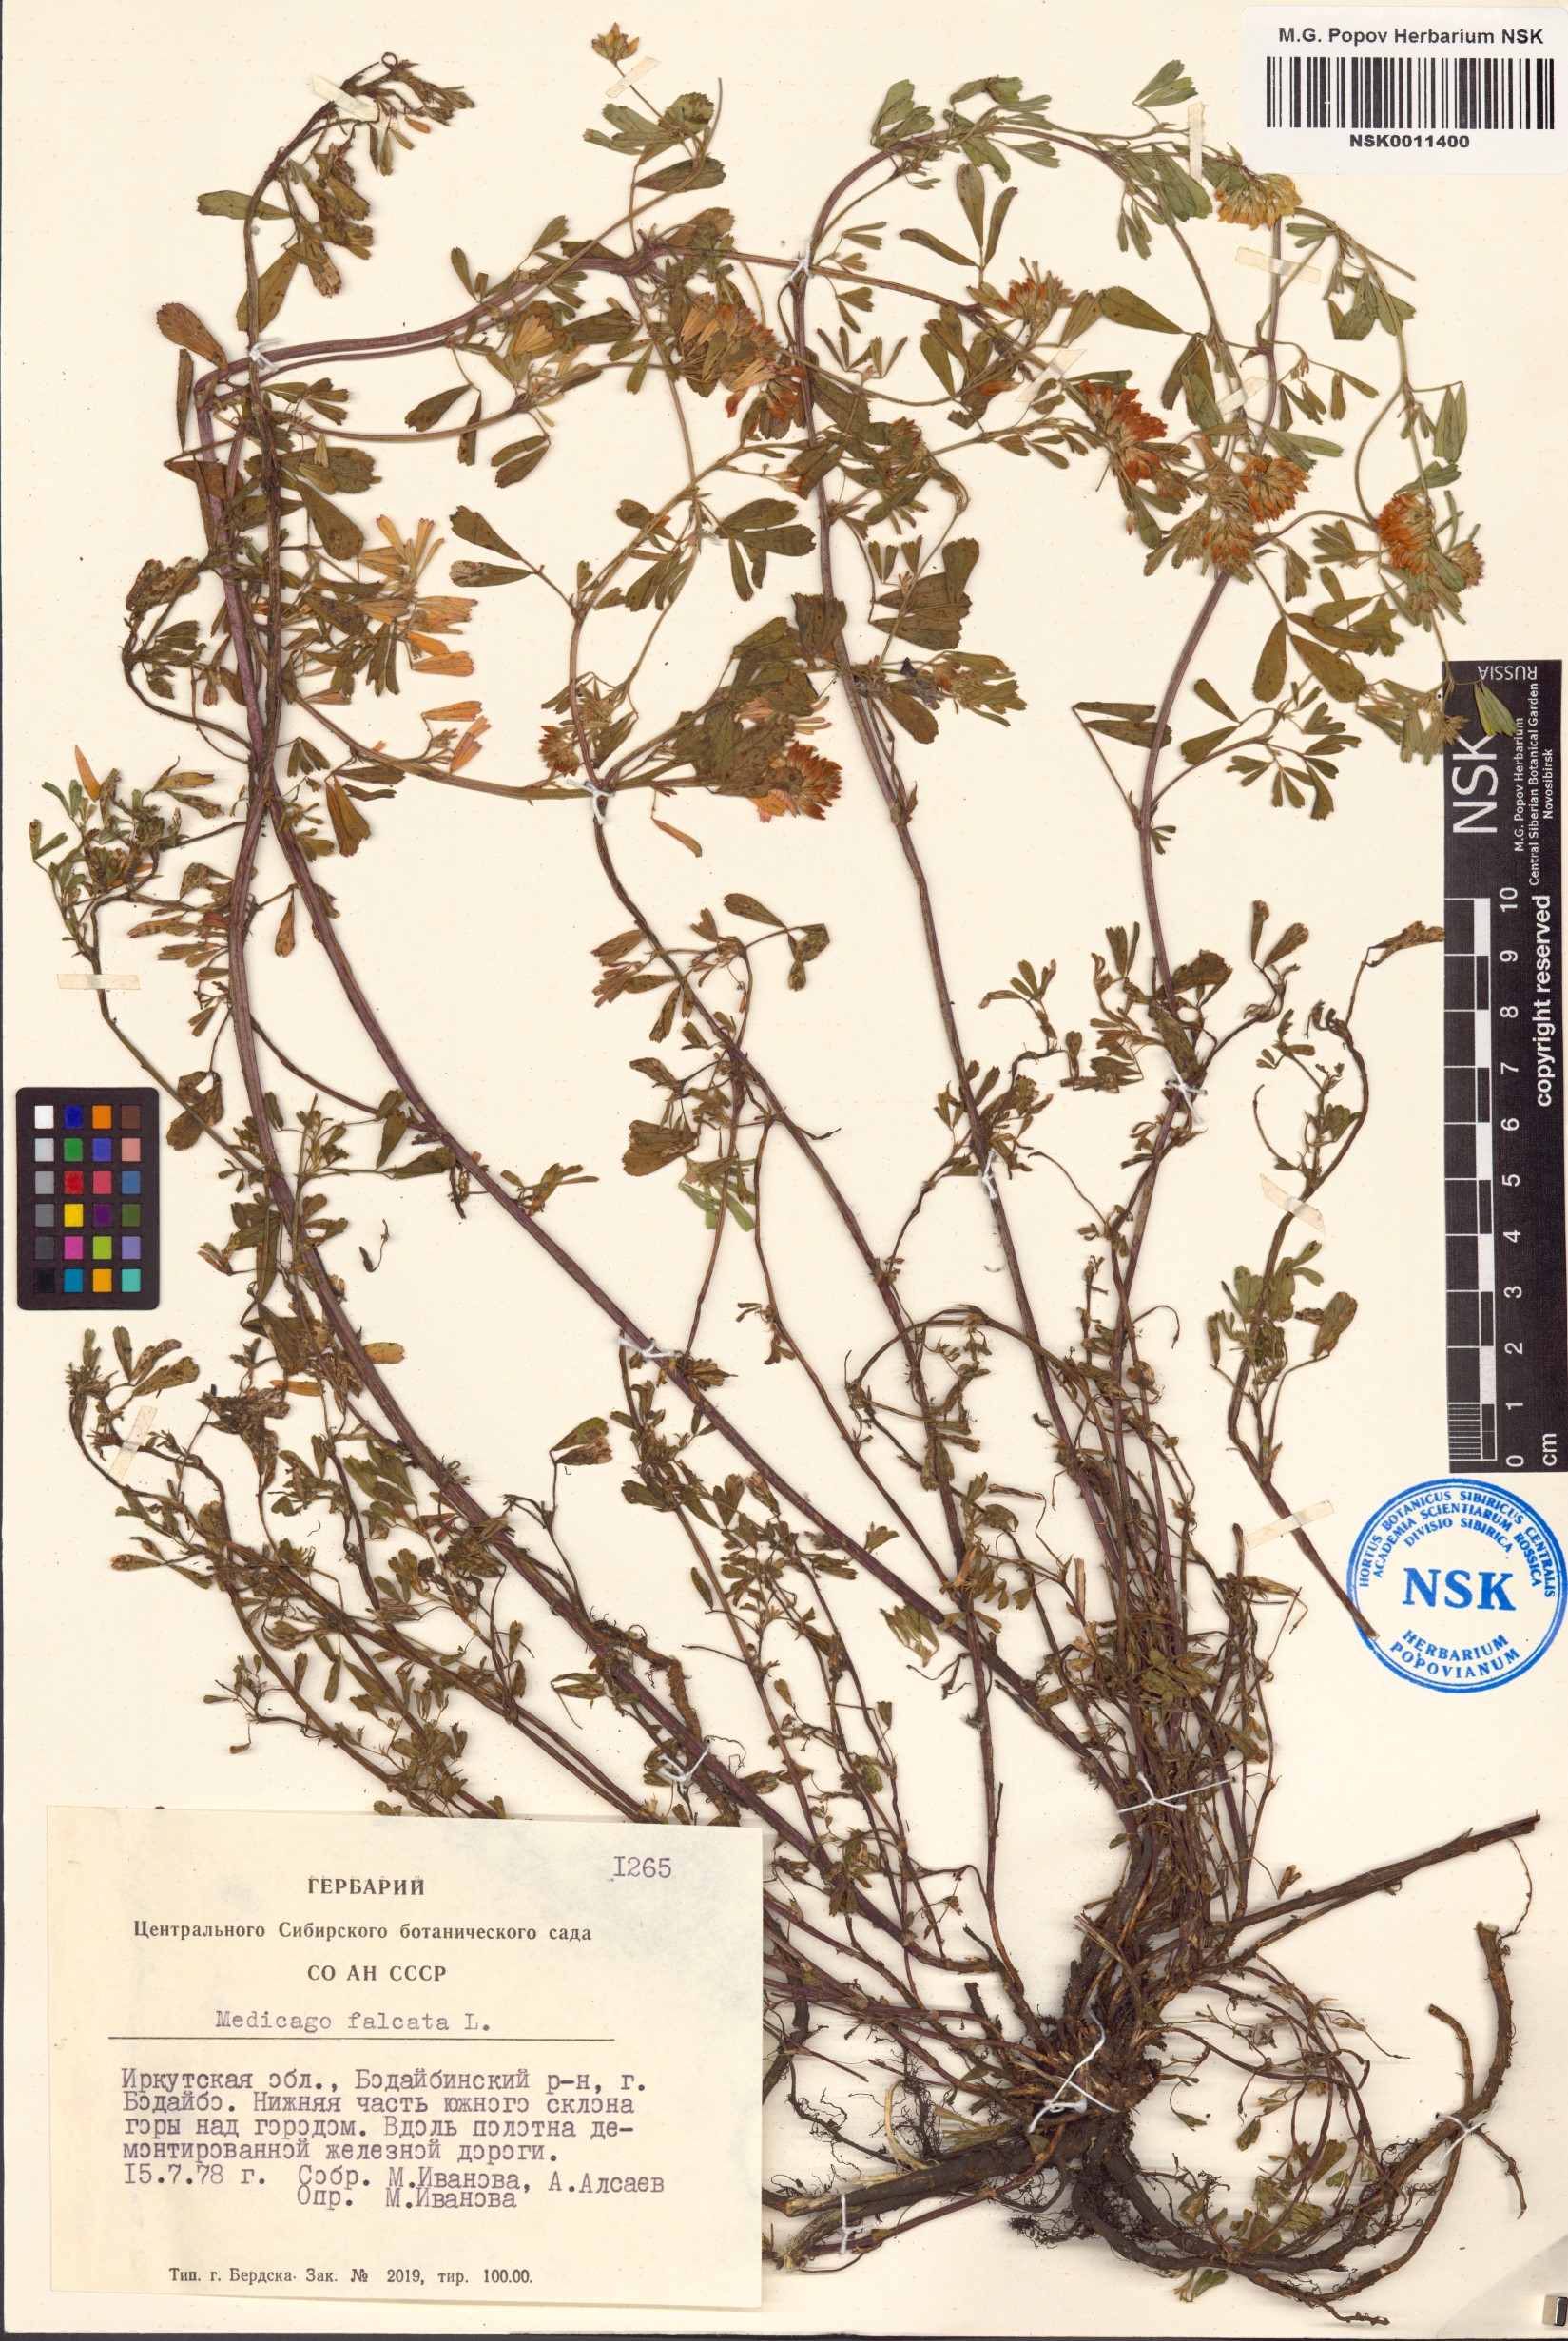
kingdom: Plantae
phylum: Tracheophyta
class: Magnoliopsida
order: Fabales
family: Fabaceae
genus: Medicago
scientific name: Medicago falcata
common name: Sickle medick
